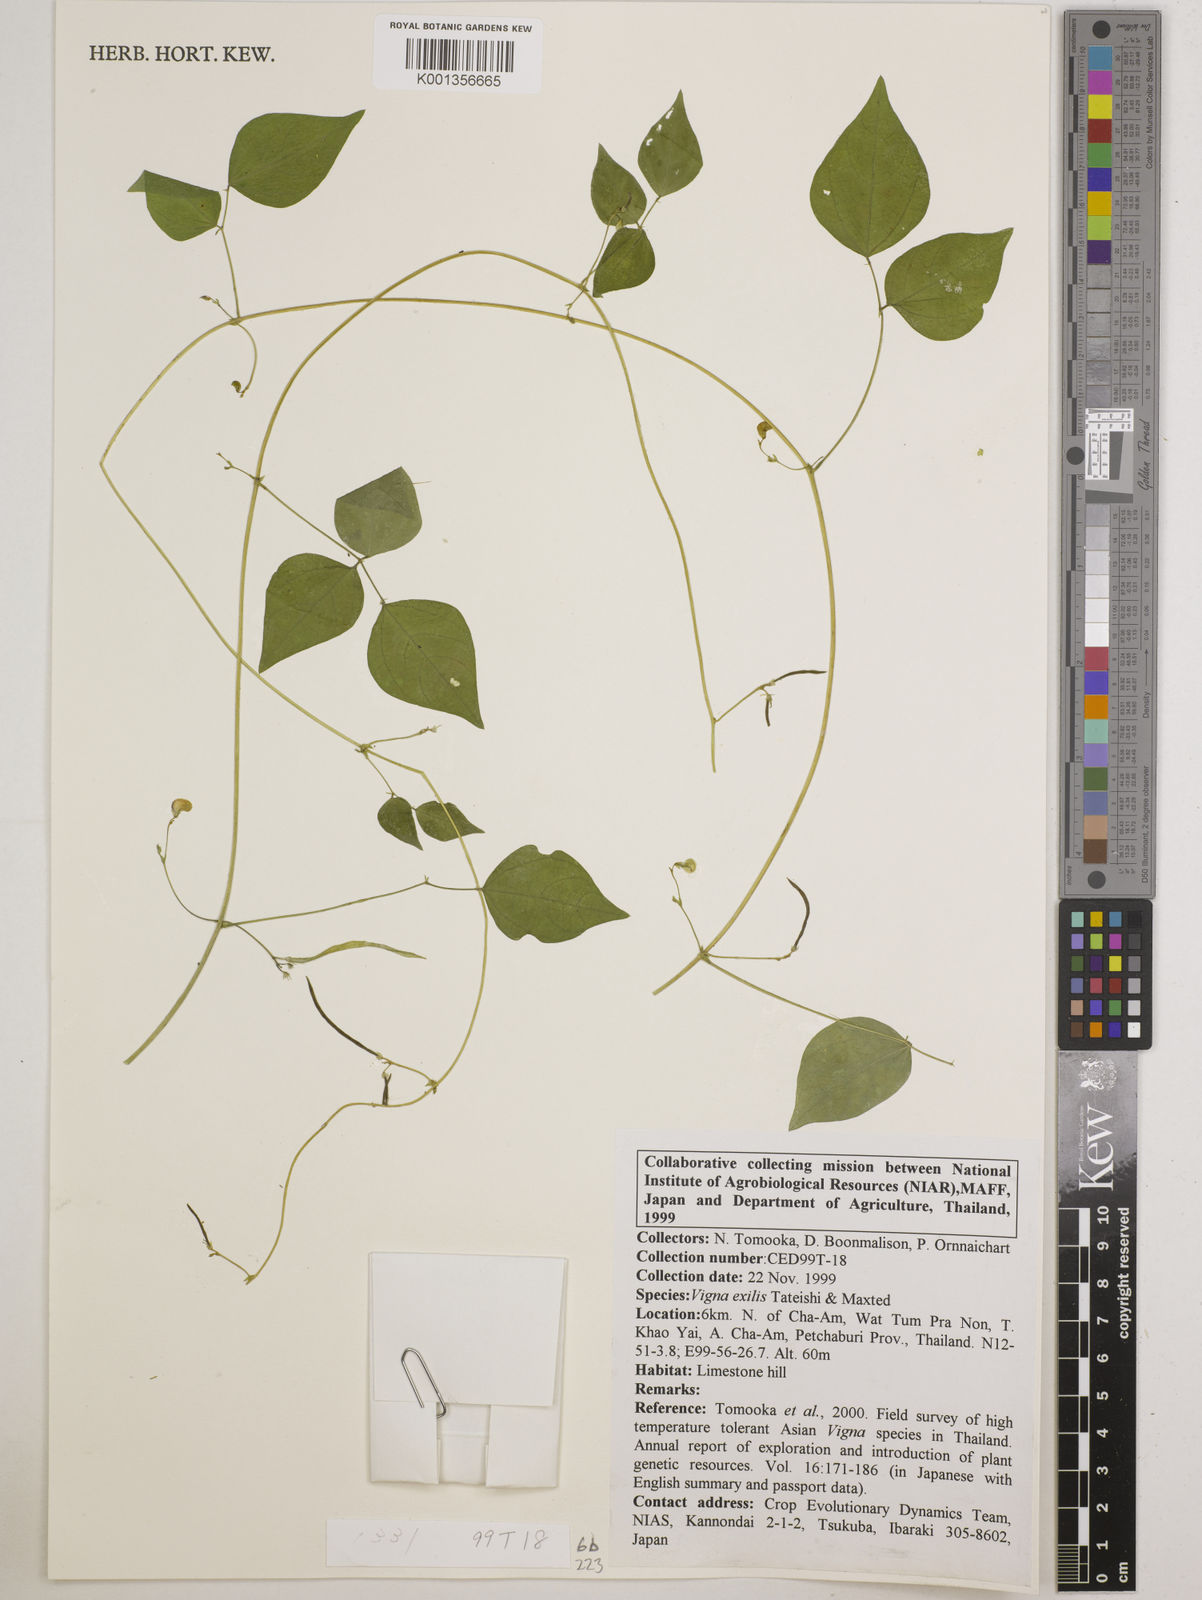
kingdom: Plantae
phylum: Tracheophyta
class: Magnoliopsida
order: Fabales
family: Fabaceae
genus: Vigna
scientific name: Vigna
